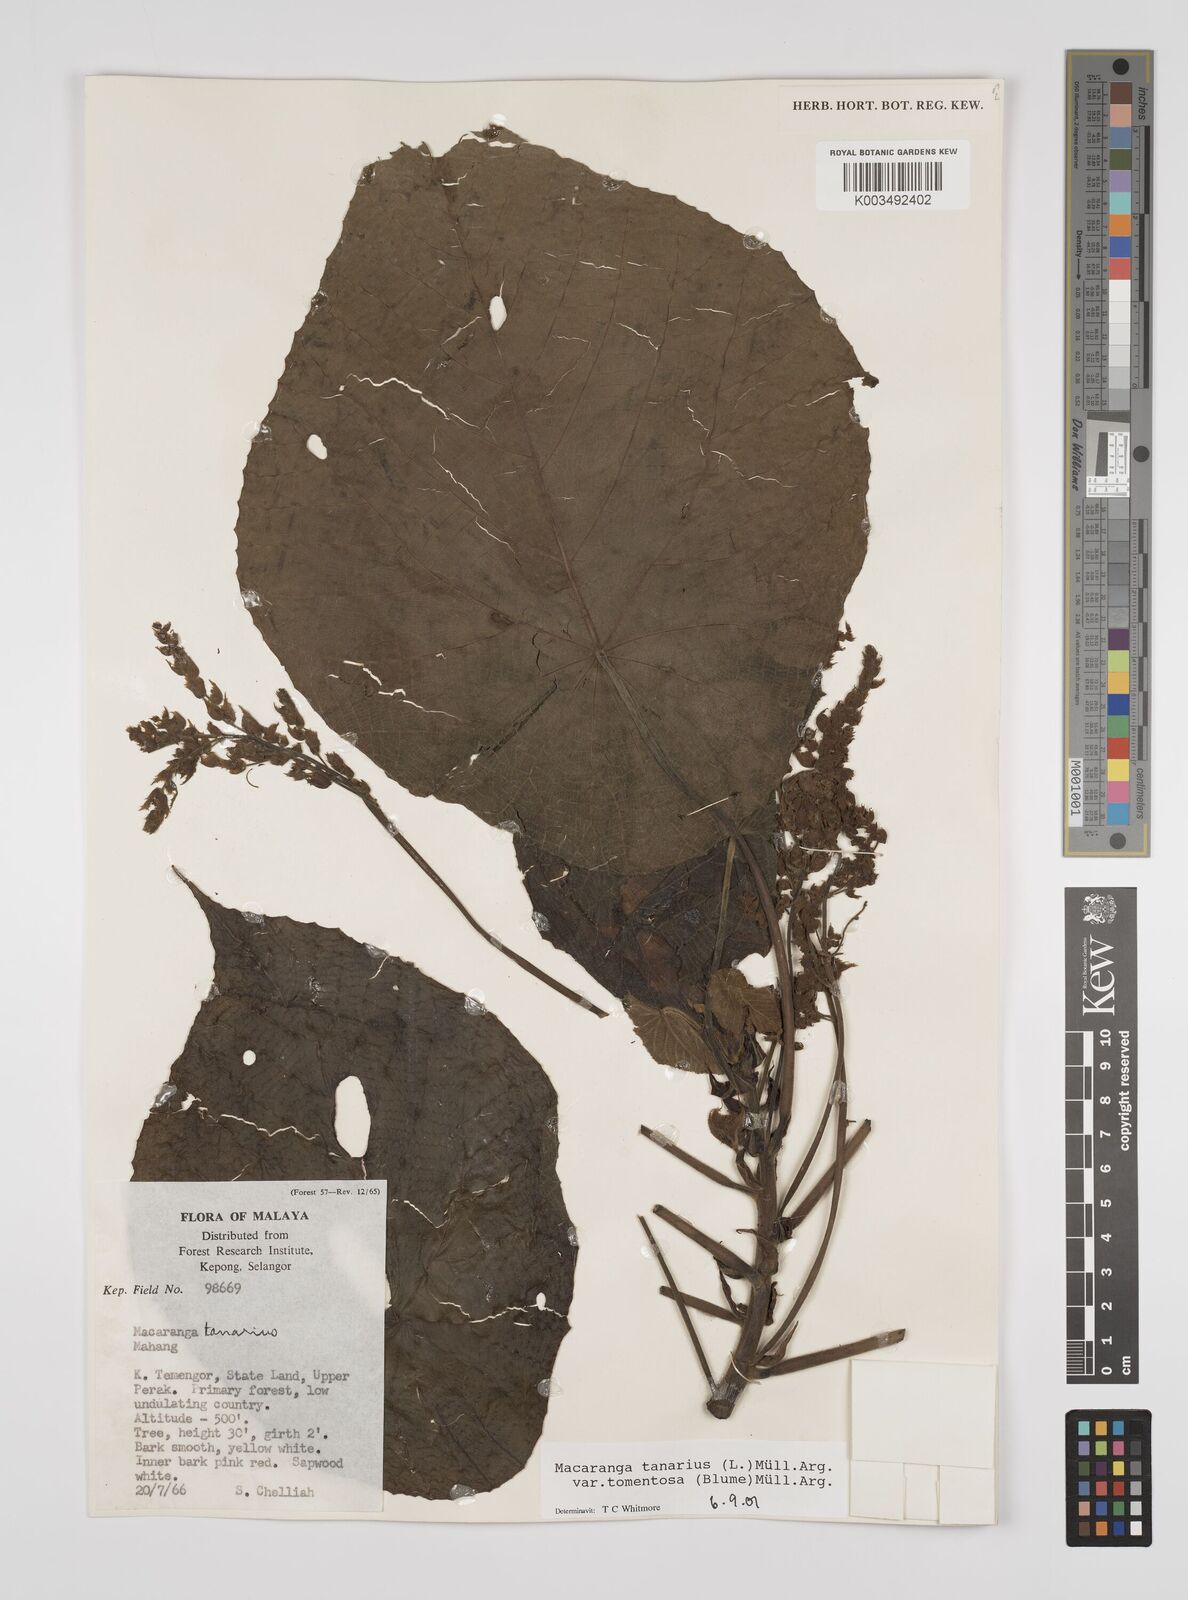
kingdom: Plantae
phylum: Tracheophyta
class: Magnoliopsida
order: Malpighiales
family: Euphorbiaceae
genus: Macaranga
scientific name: Macaranga tanarius
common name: Parasol leaf tree
